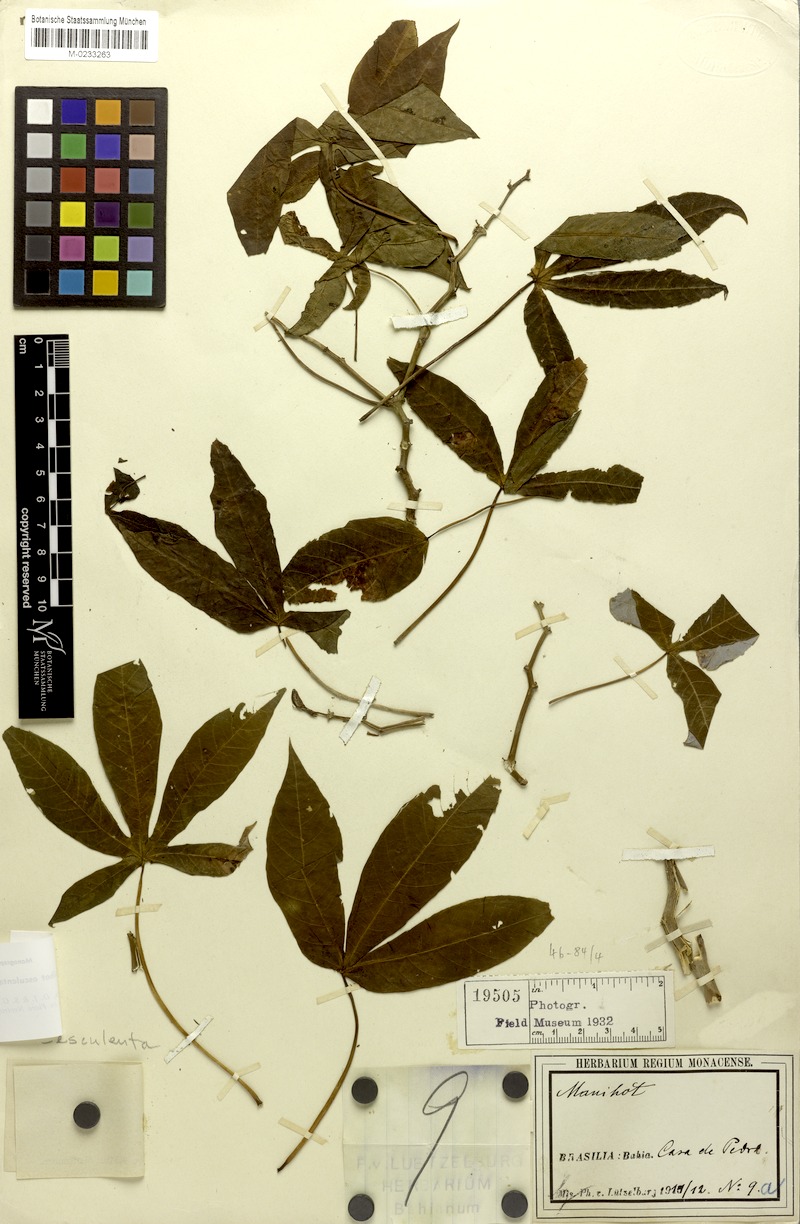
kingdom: Plantae
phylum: Tracheophyta
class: Magnoliopsida
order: Malpighiales
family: Euphorbiaceae
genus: Manihot
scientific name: Manihot esculenta
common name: Cassava
